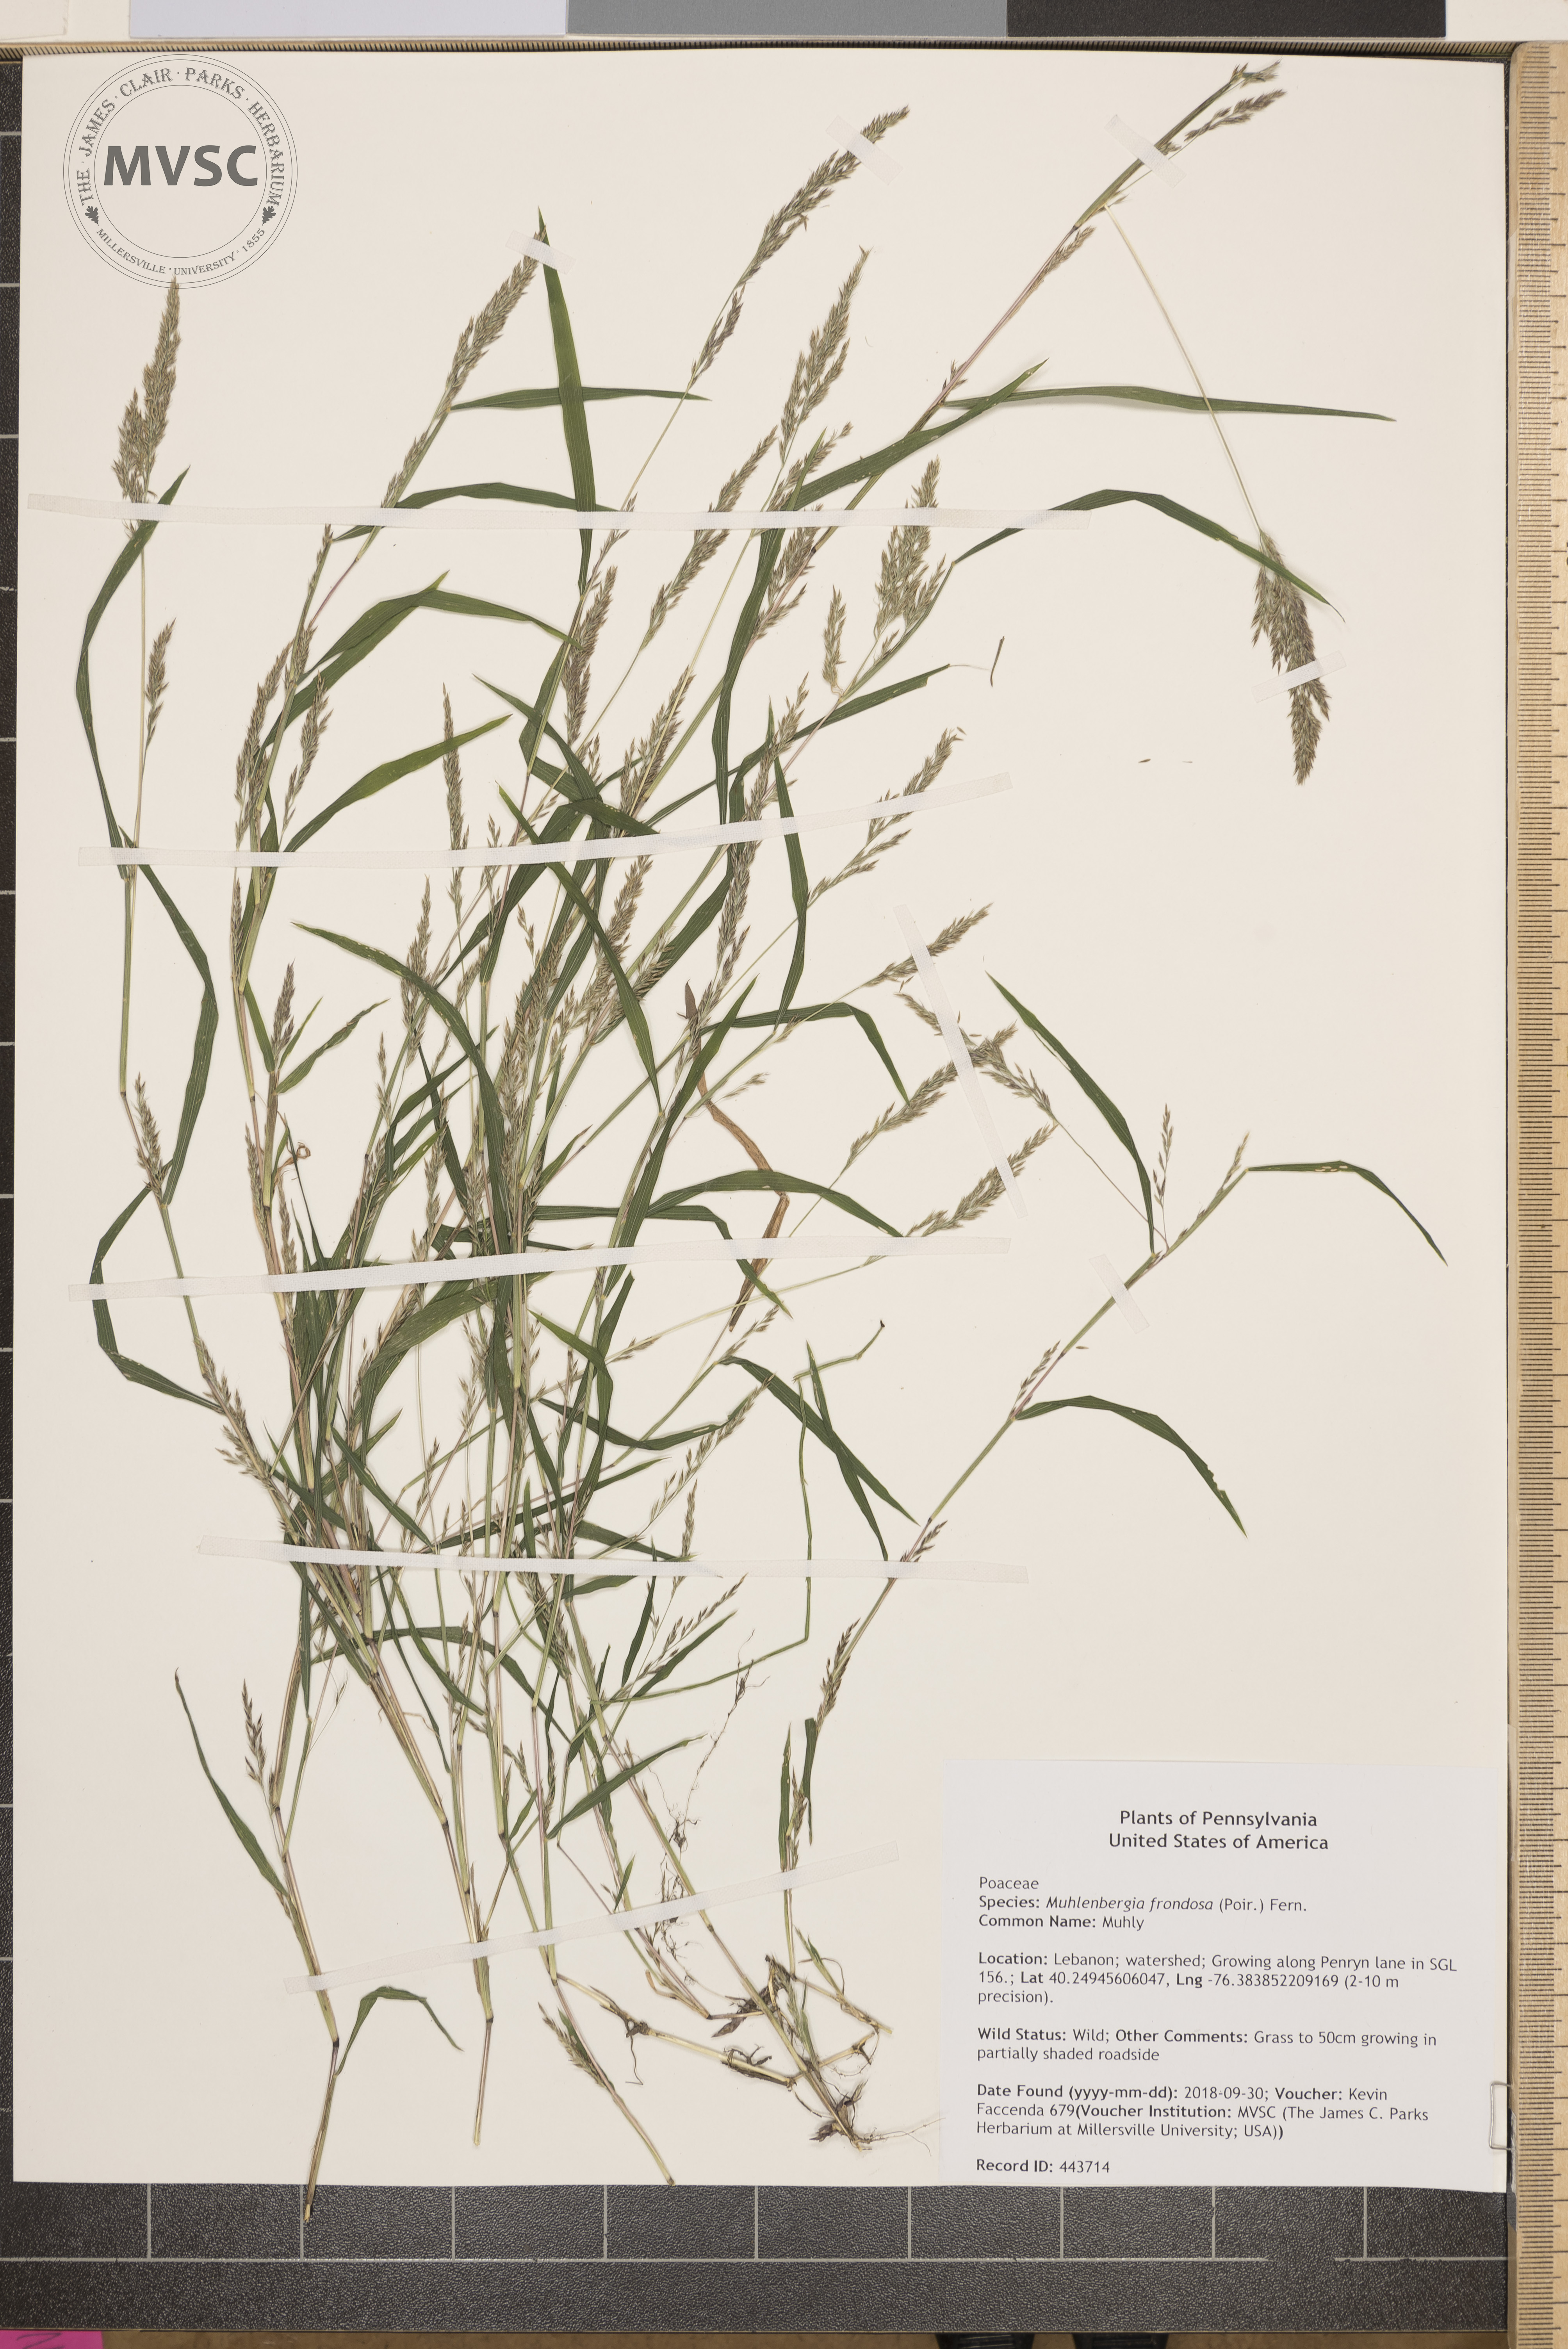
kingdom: Plantae
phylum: Tracheophyta
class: Liliopsida
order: Poales
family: Poaceae
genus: Muhlenbergia
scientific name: Muhlenbergia frondosa
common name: Muhly
